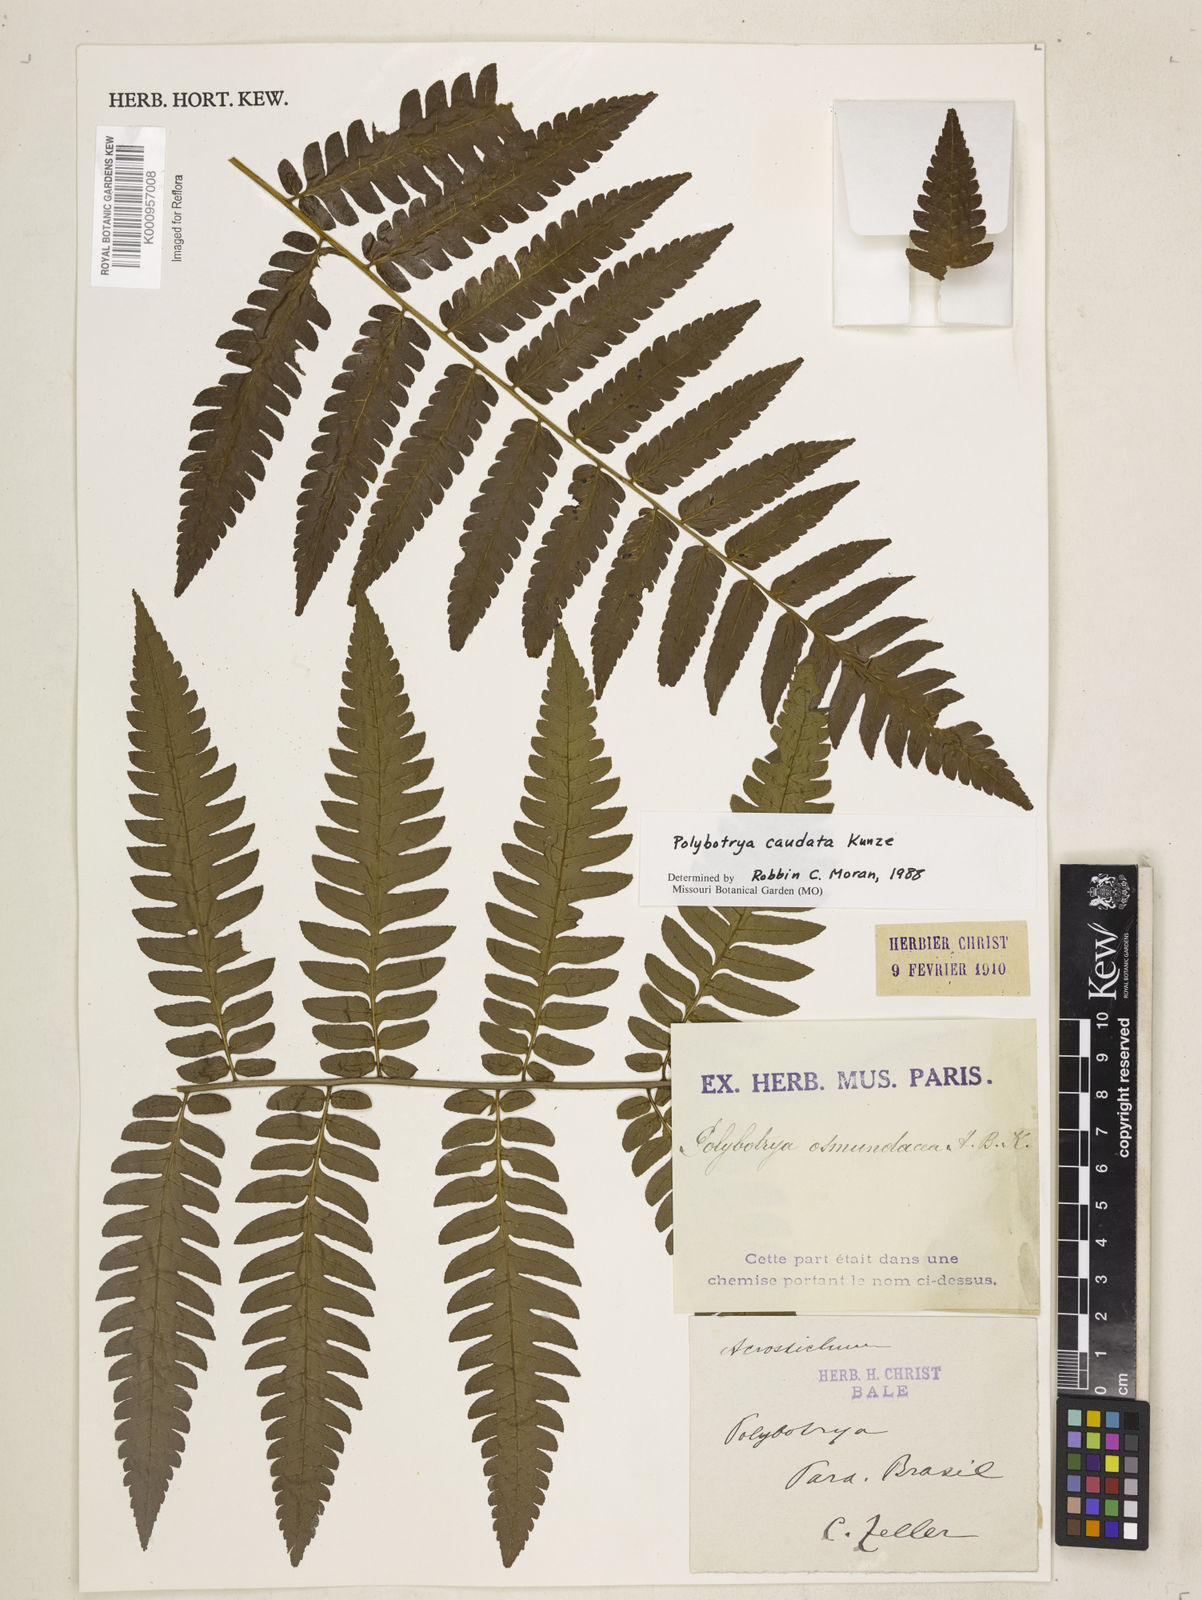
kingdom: Plantae
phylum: Tracheophyta
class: Polypodiopsida
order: Polypodiales
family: Dryopteridaceae
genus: Polybotrya
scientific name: Polybotrya caudata
